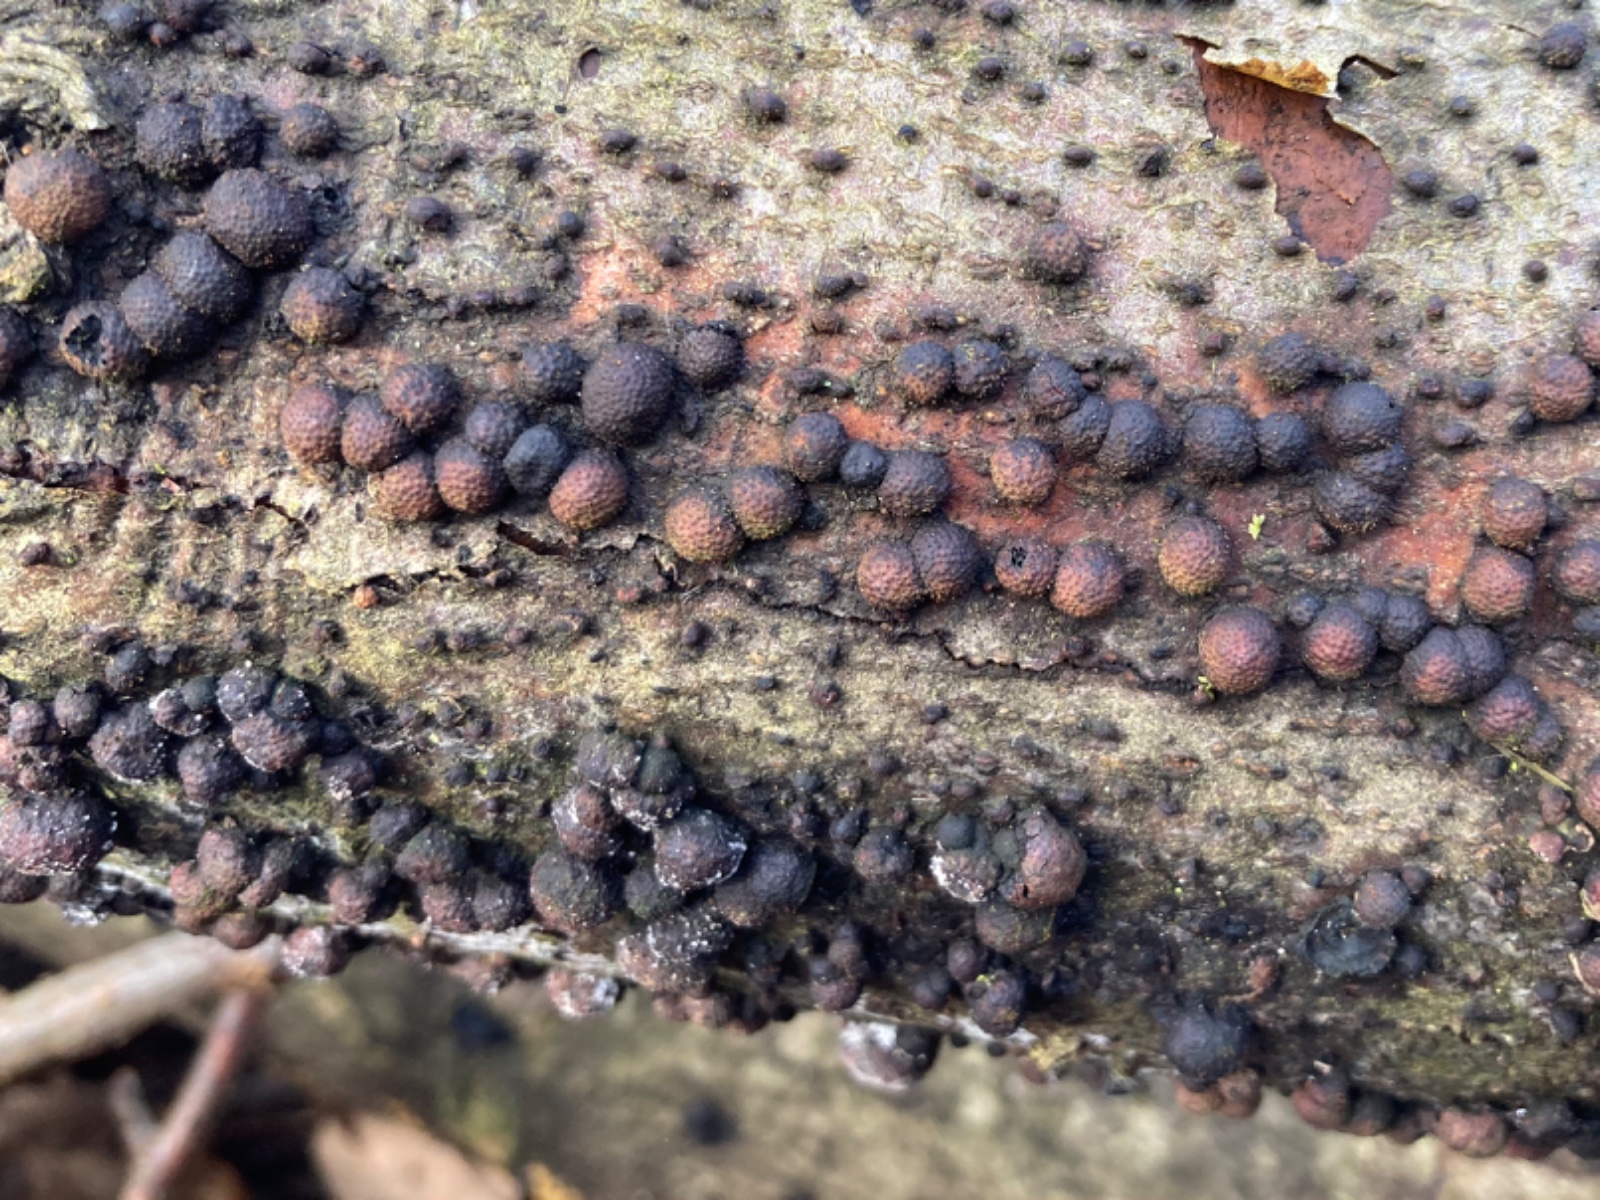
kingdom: Fungi
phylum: Ascomycota
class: Sordariomycetes
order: Xylariales
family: Hypoxylaceae
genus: Hypoxylon
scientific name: Hypoxylon fragiforme
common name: kuljordbær
